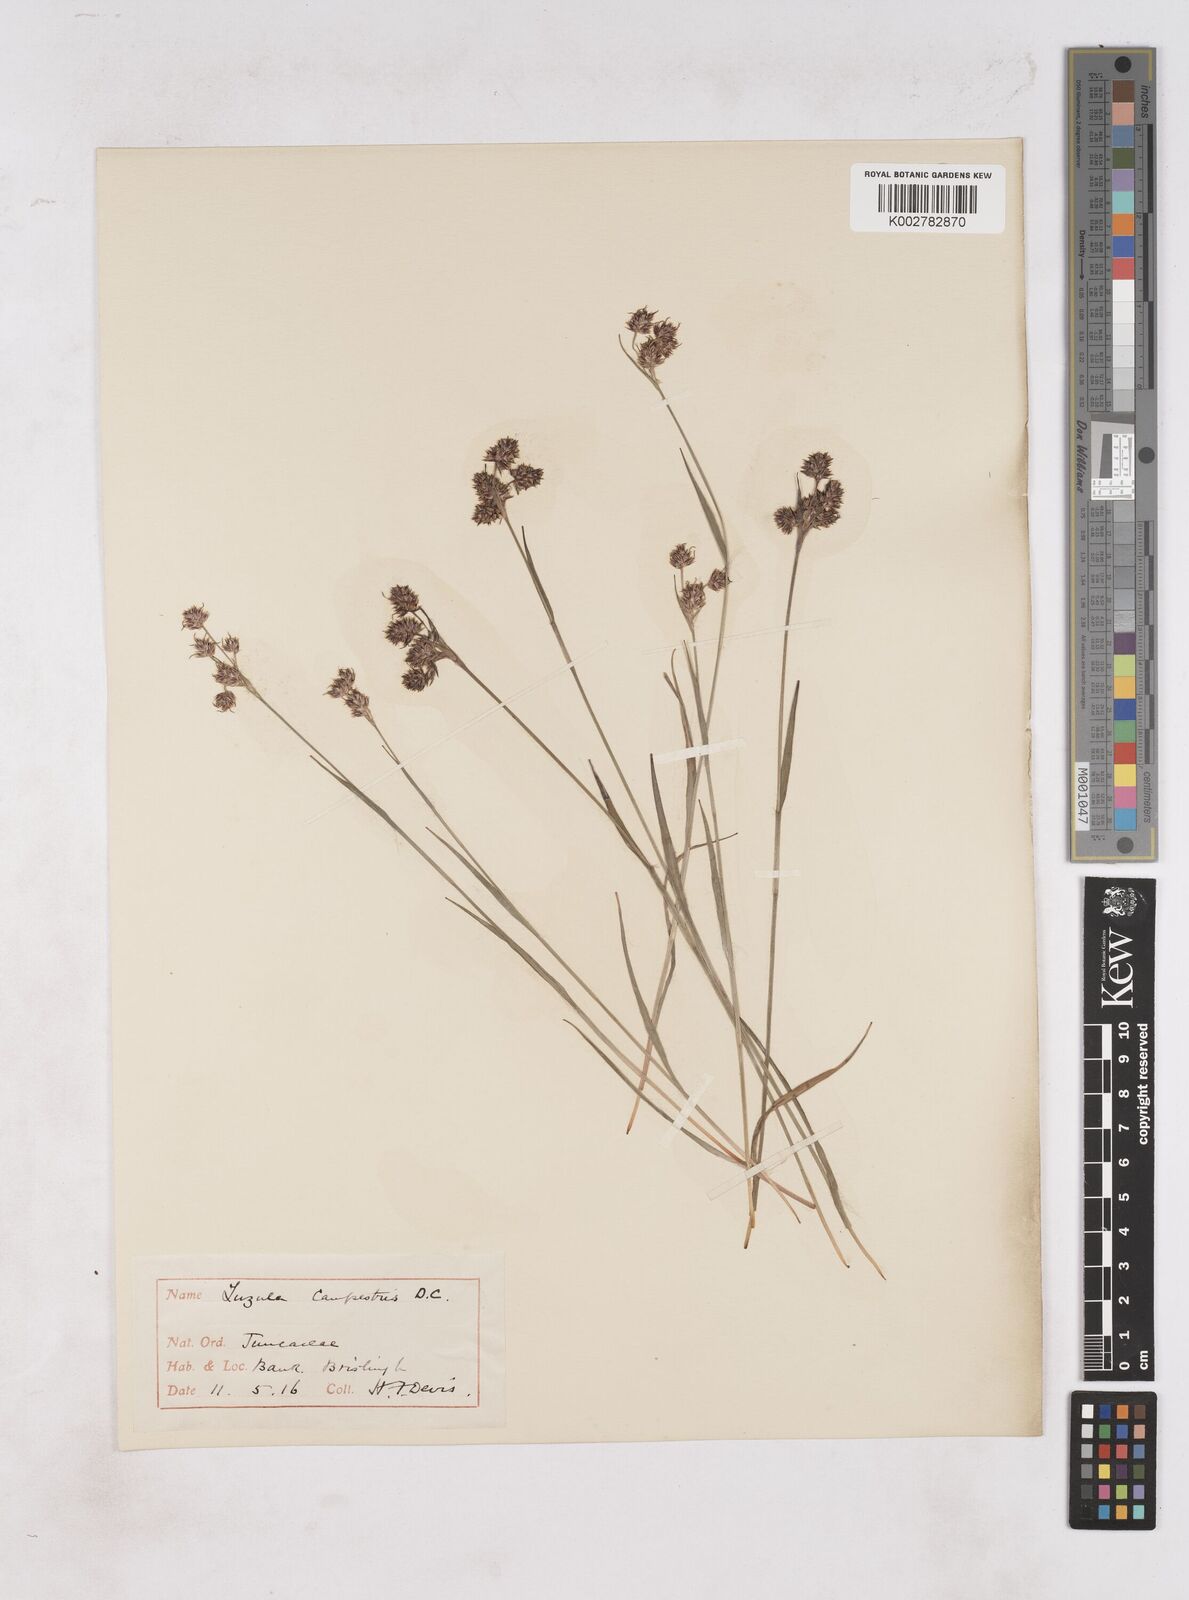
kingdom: Plantae
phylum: Tracheophyta
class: Liliopsida
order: Poales
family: Juncaceae
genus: Luzula
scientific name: Luzula campestris
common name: Field wood-rush
